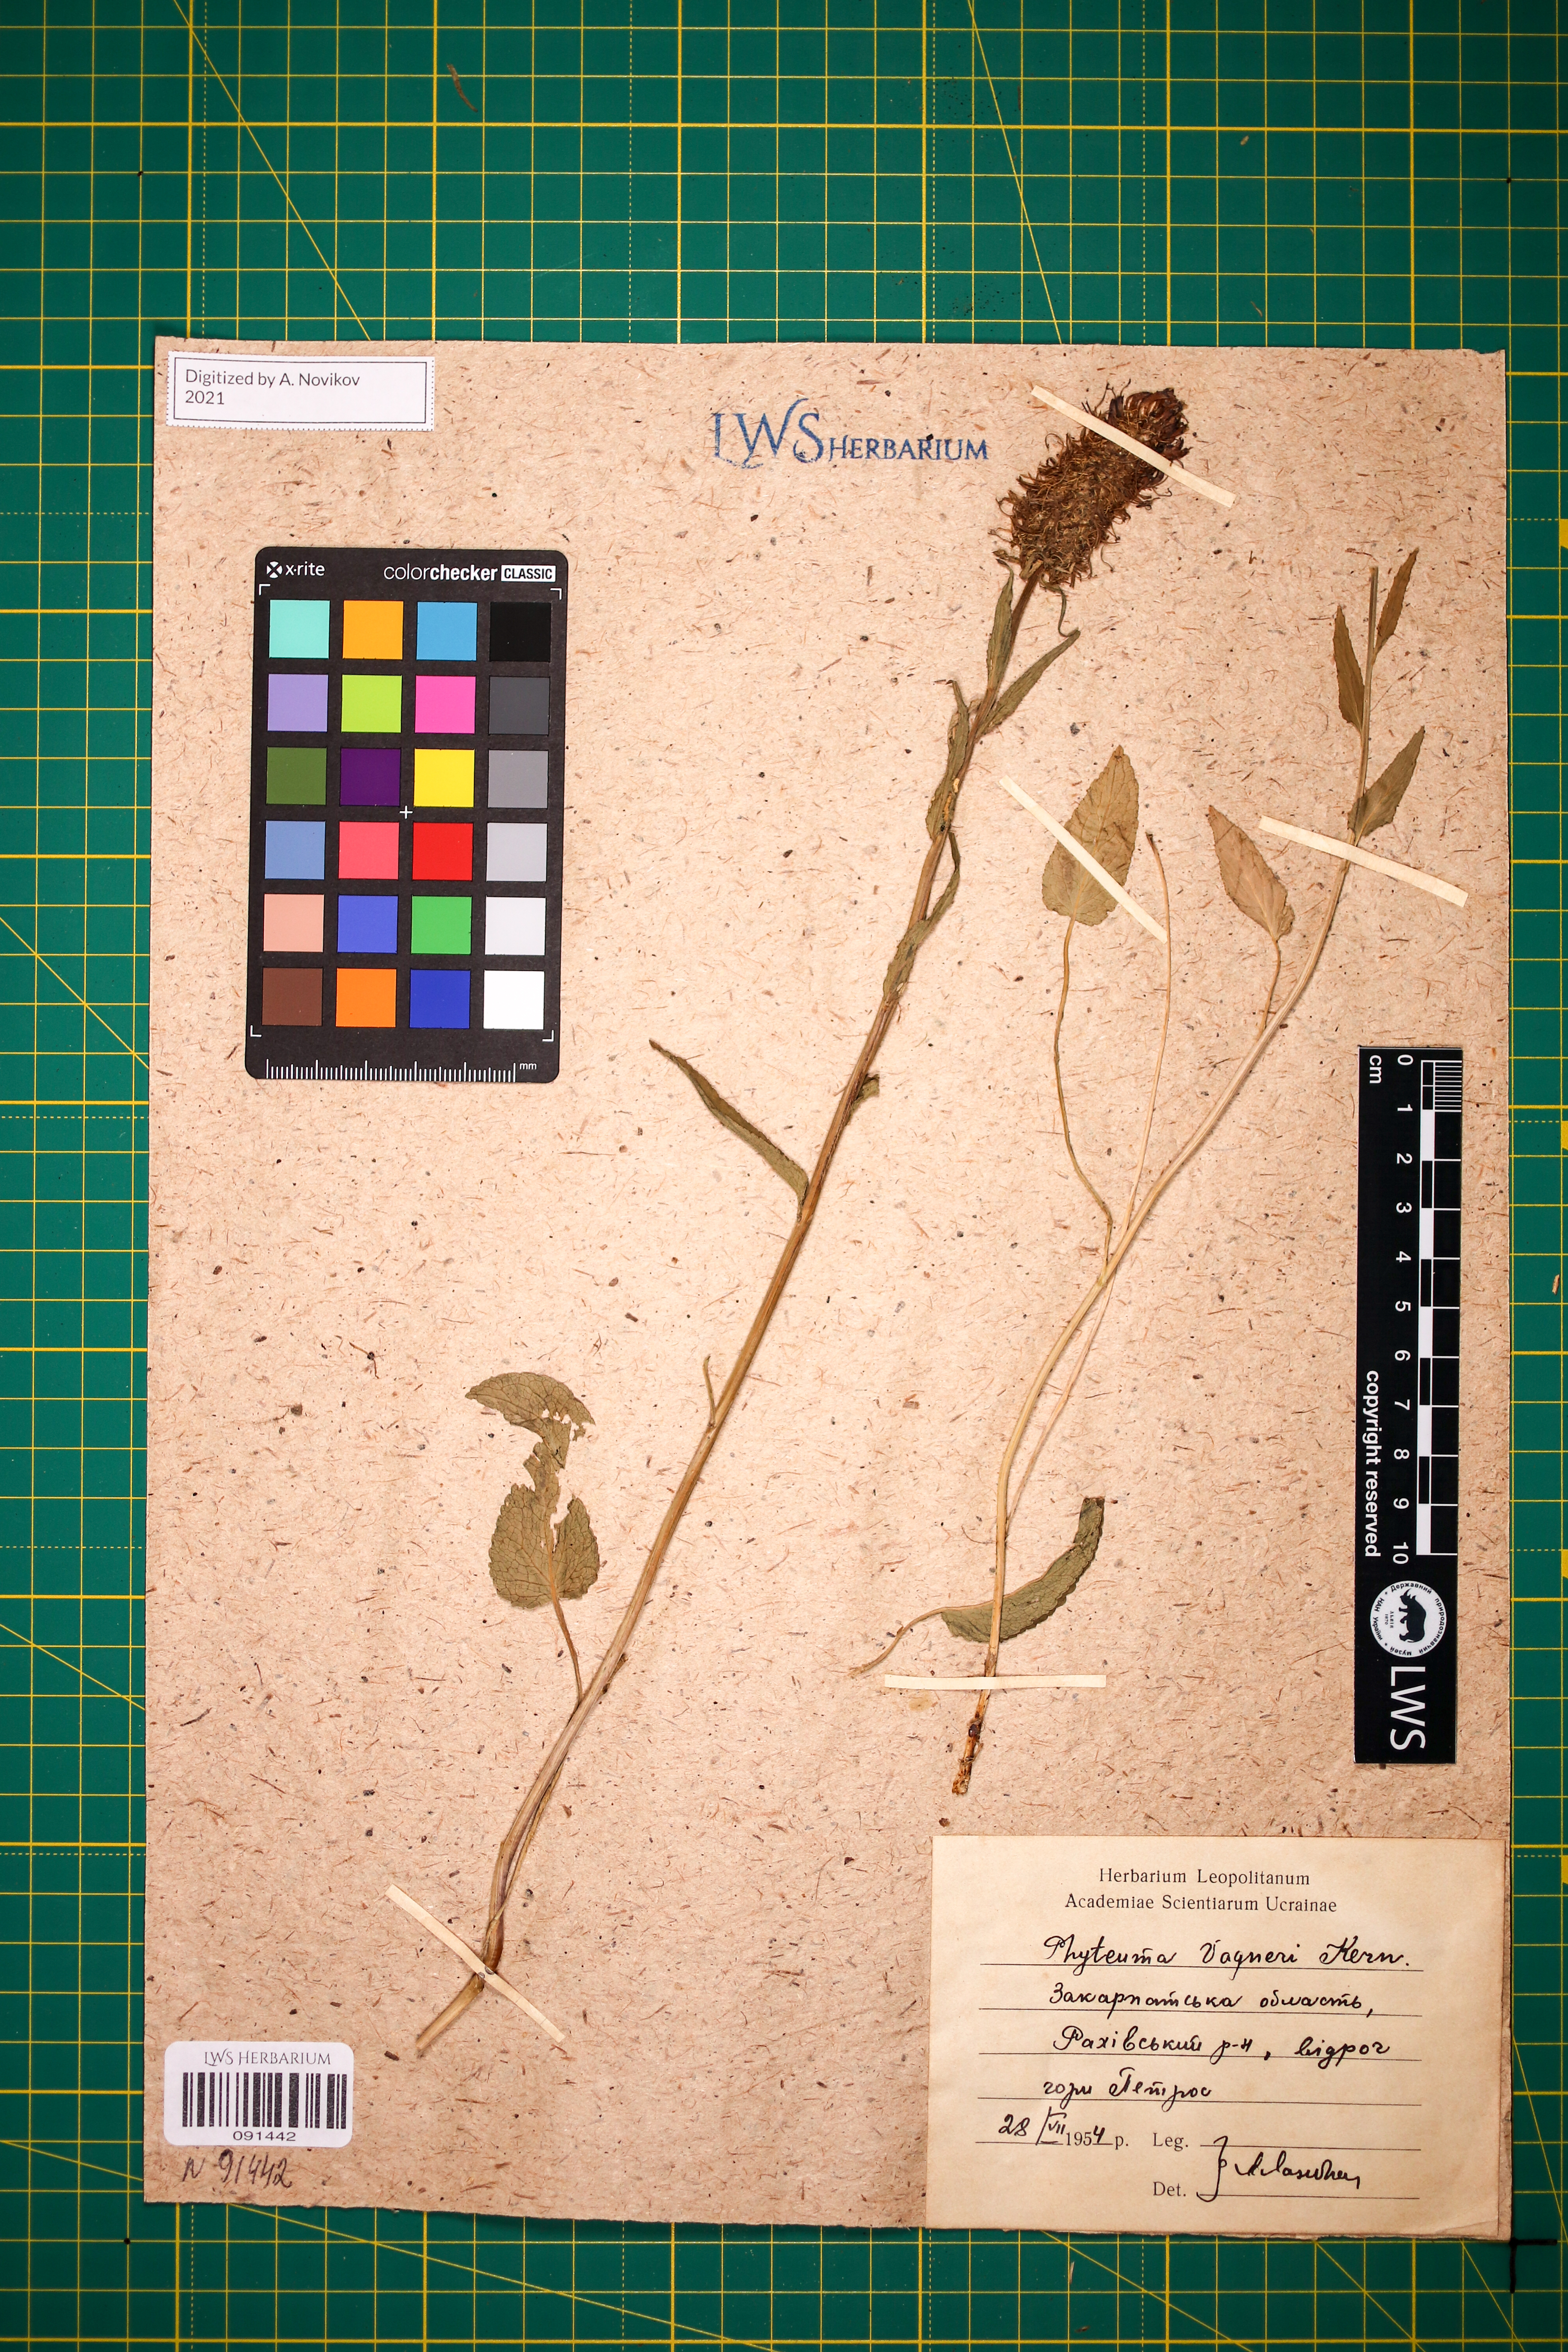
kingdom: Plantae
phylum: Tracheophyta
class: Magnoliopsida
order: Asterales
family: Campanulaceae
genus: Phyteuma
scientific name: Phyteuma vagneri
